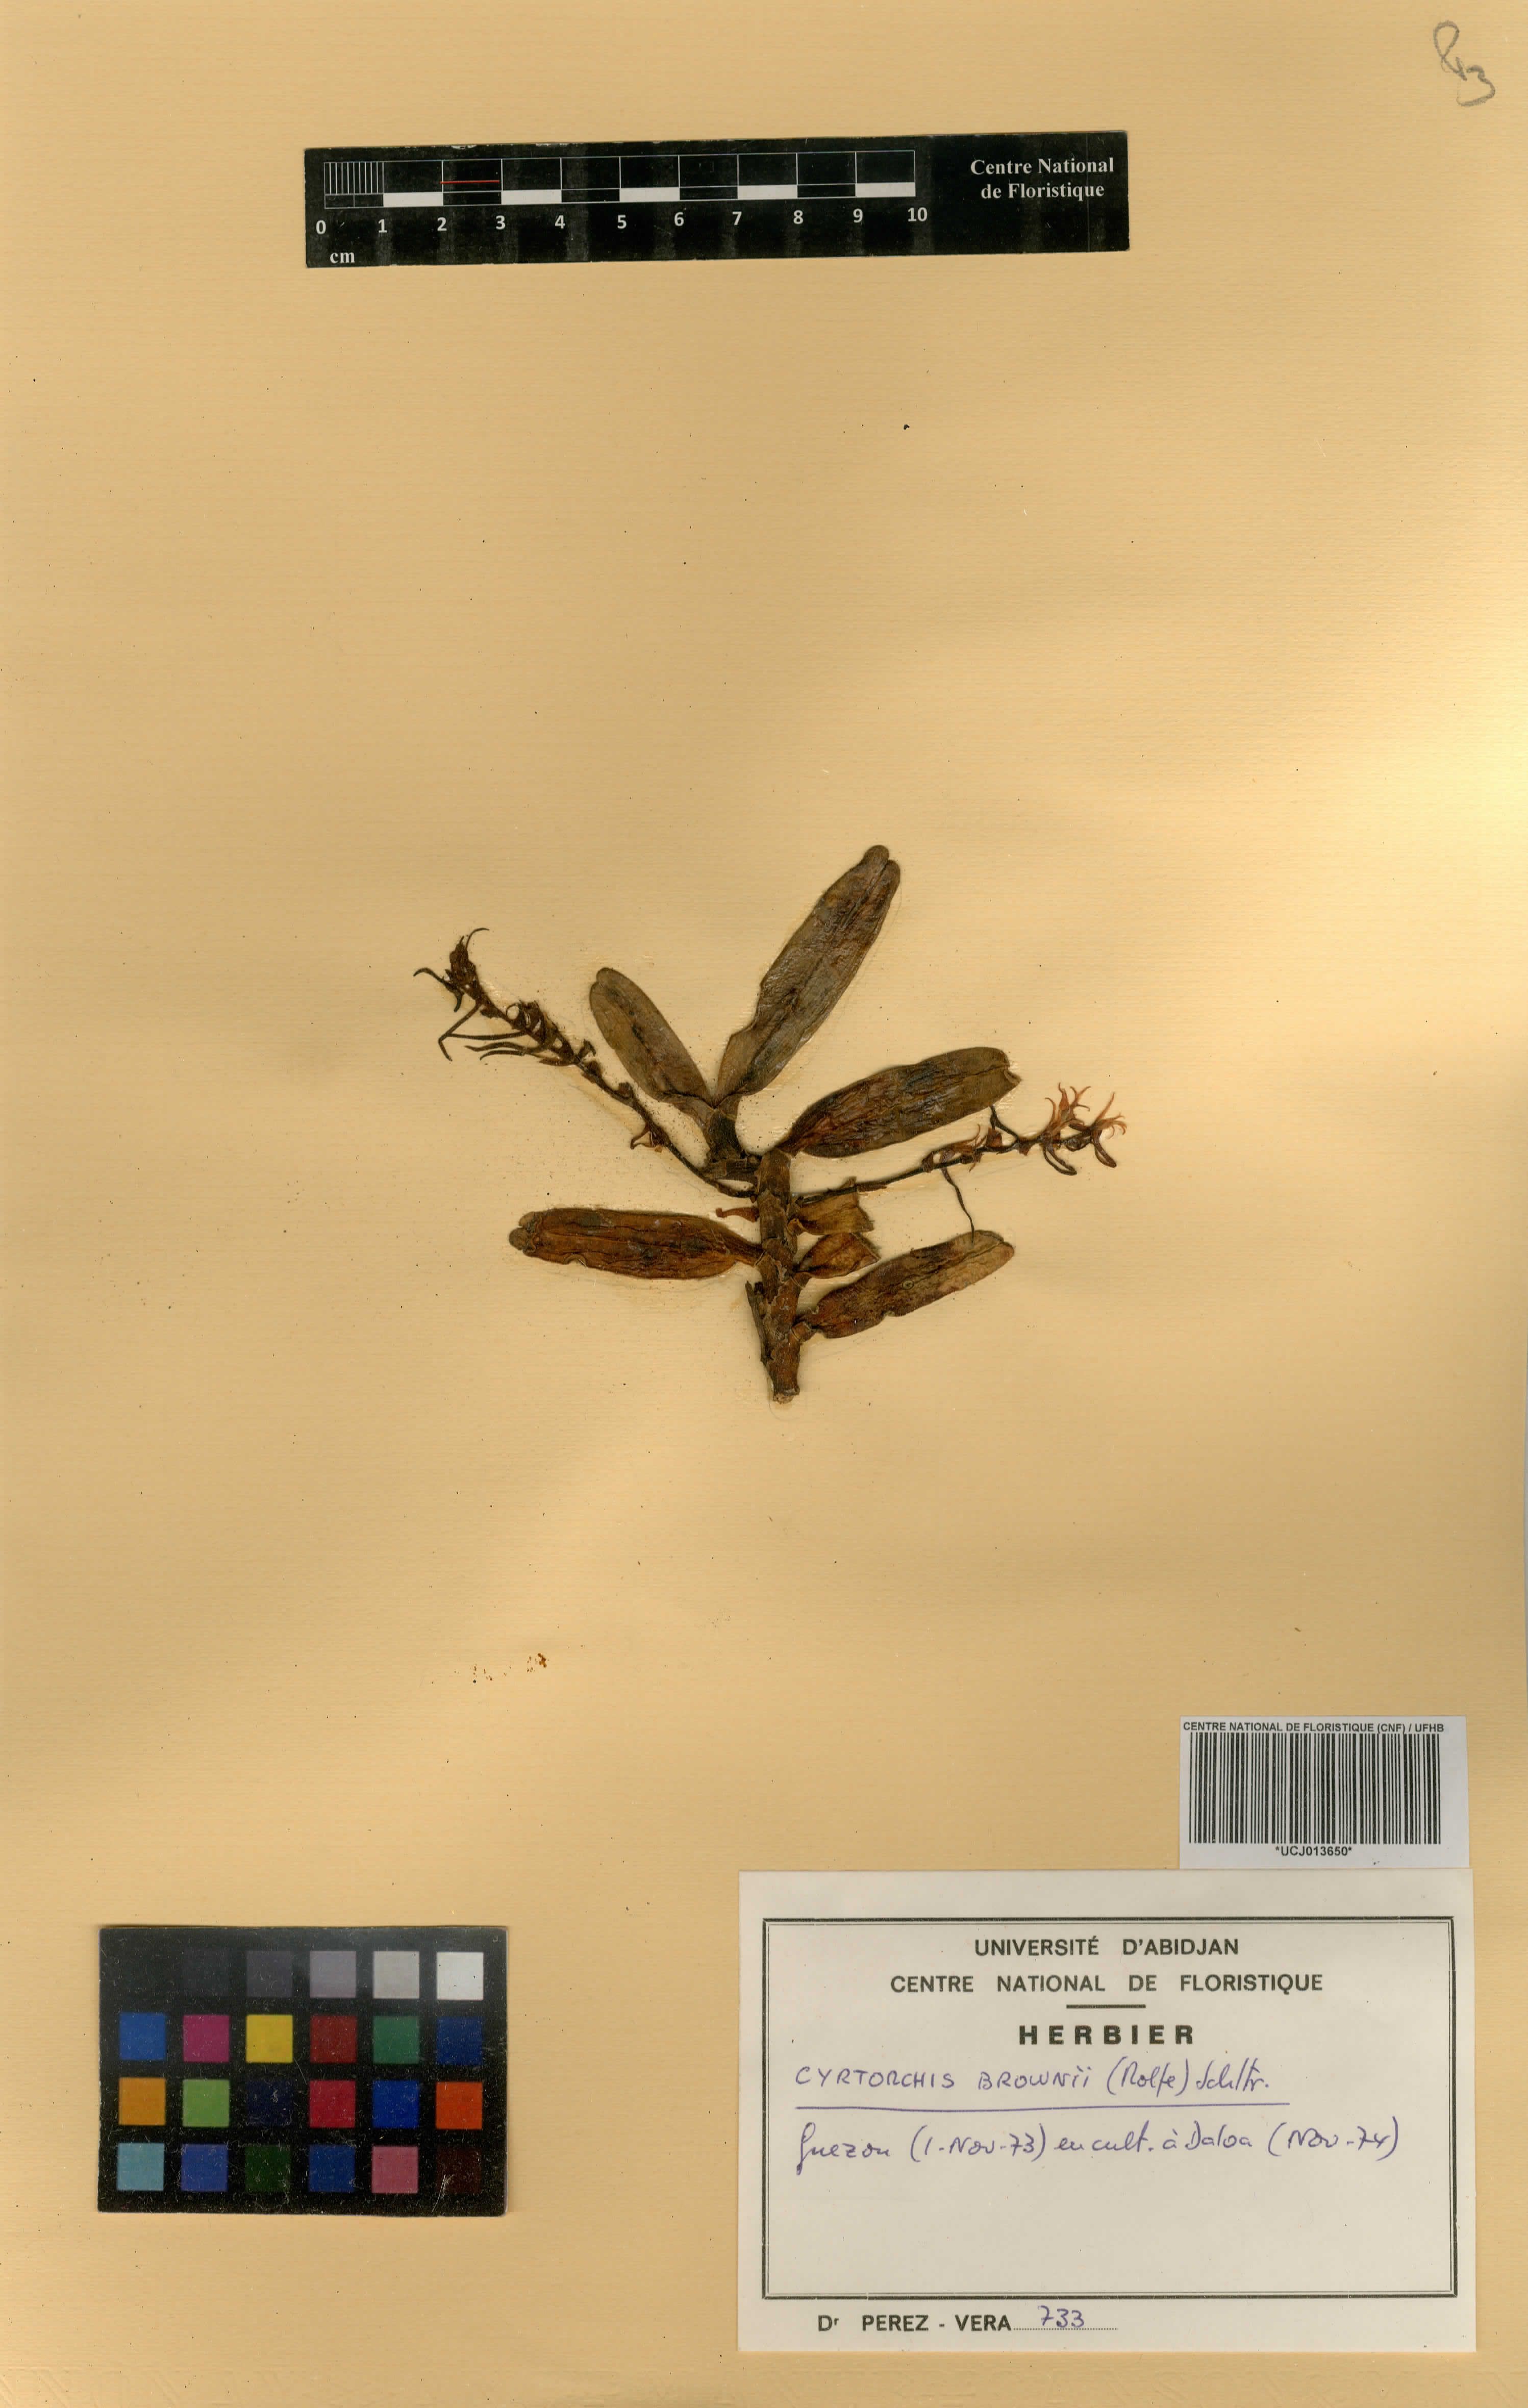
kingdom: Plantae
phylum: Tracheophyta
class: Liliopsida
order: Asparagales
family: Orchidaceae
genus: Cyrtorchis
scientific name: Cyrtorchis brownii
